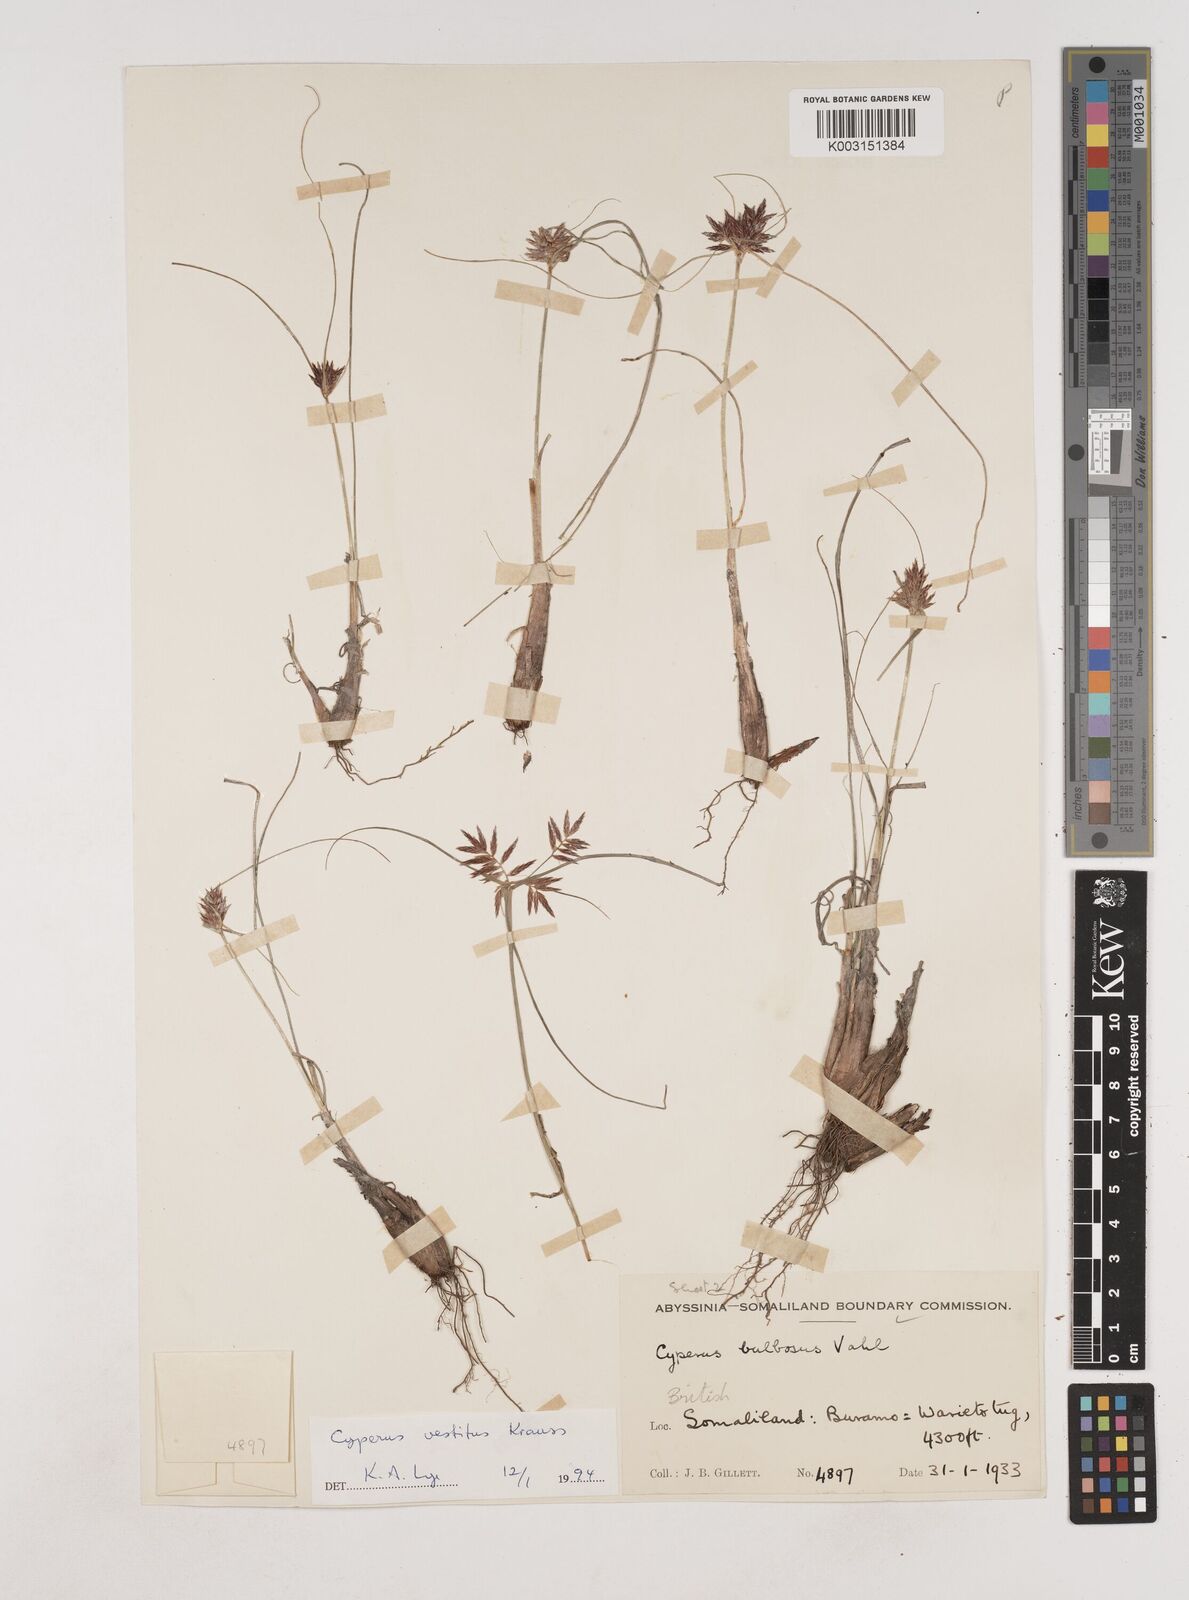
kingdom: Plantae
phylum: Tracheophyta
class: Liliopsida
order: Poales
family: Cyperaceae
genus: Cyperus
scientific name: Cyperus vestitus
